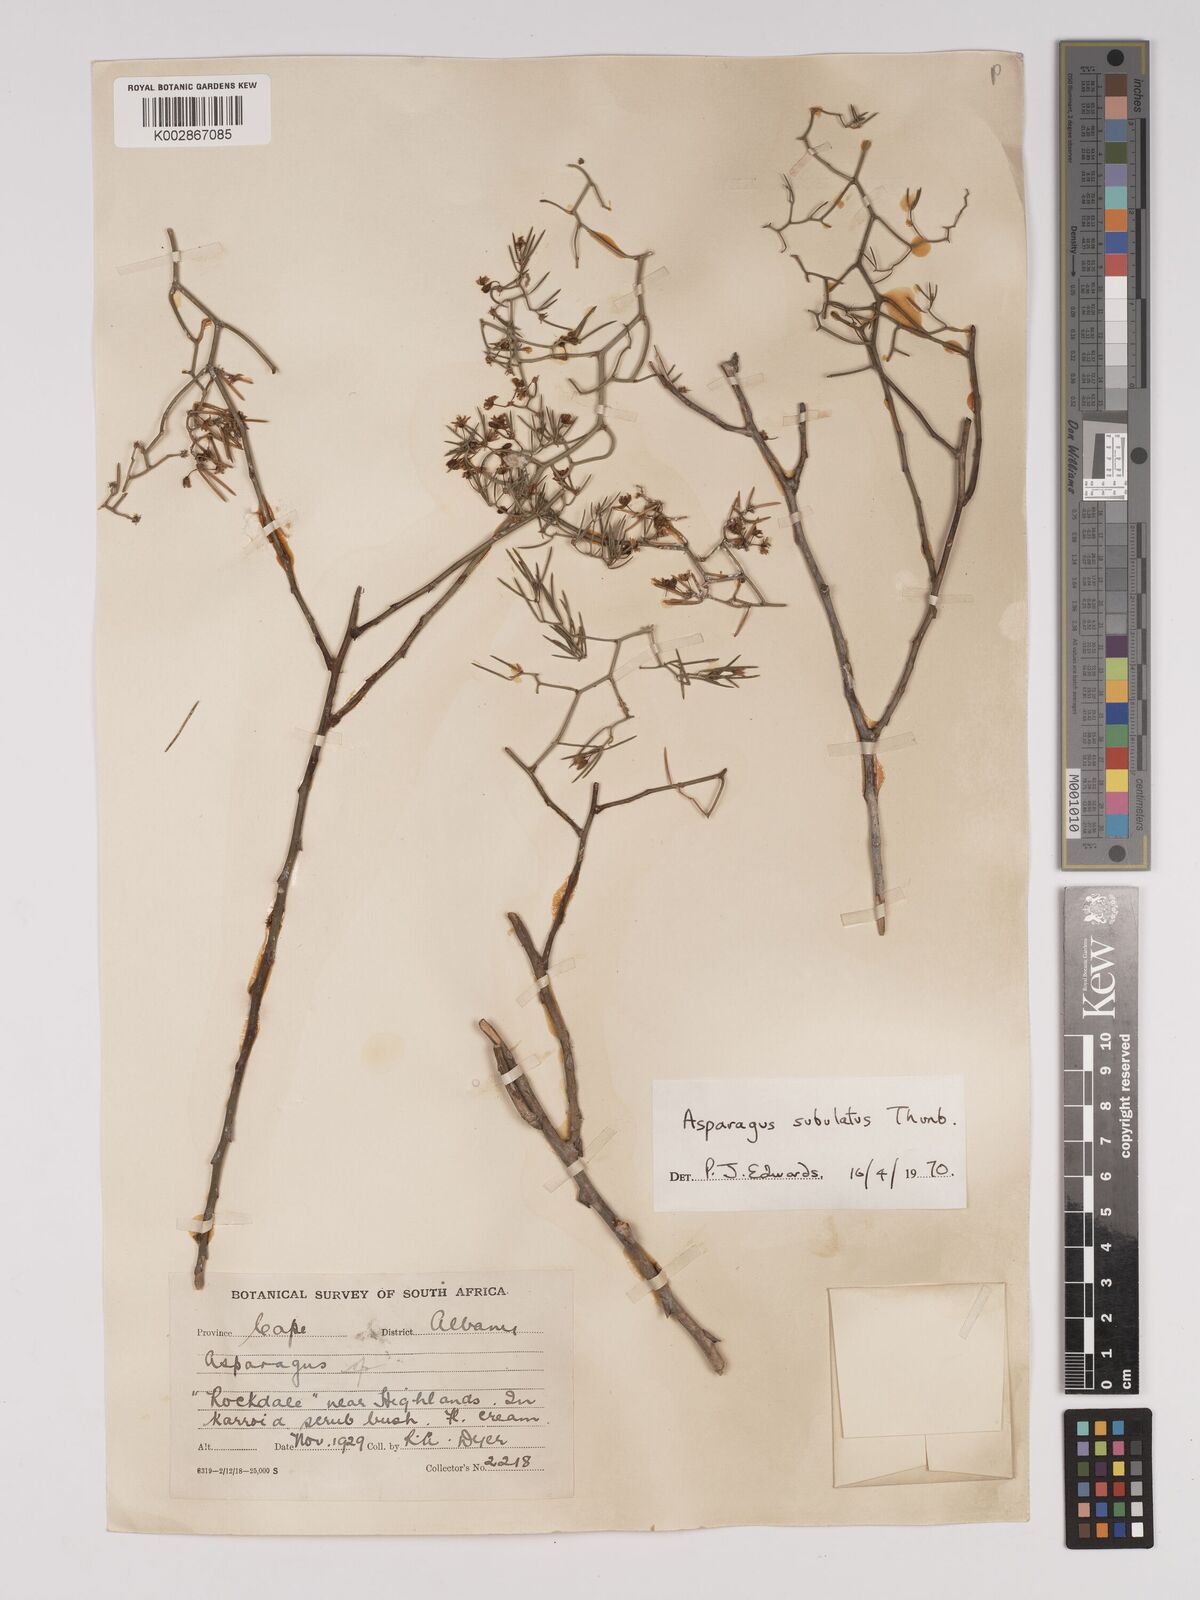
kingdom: Plantae
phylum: Tracheophyta
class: Liliopsida
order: Asparagales
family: Asparagaceae
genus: Asparagus
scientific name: Asparagus subulatus
